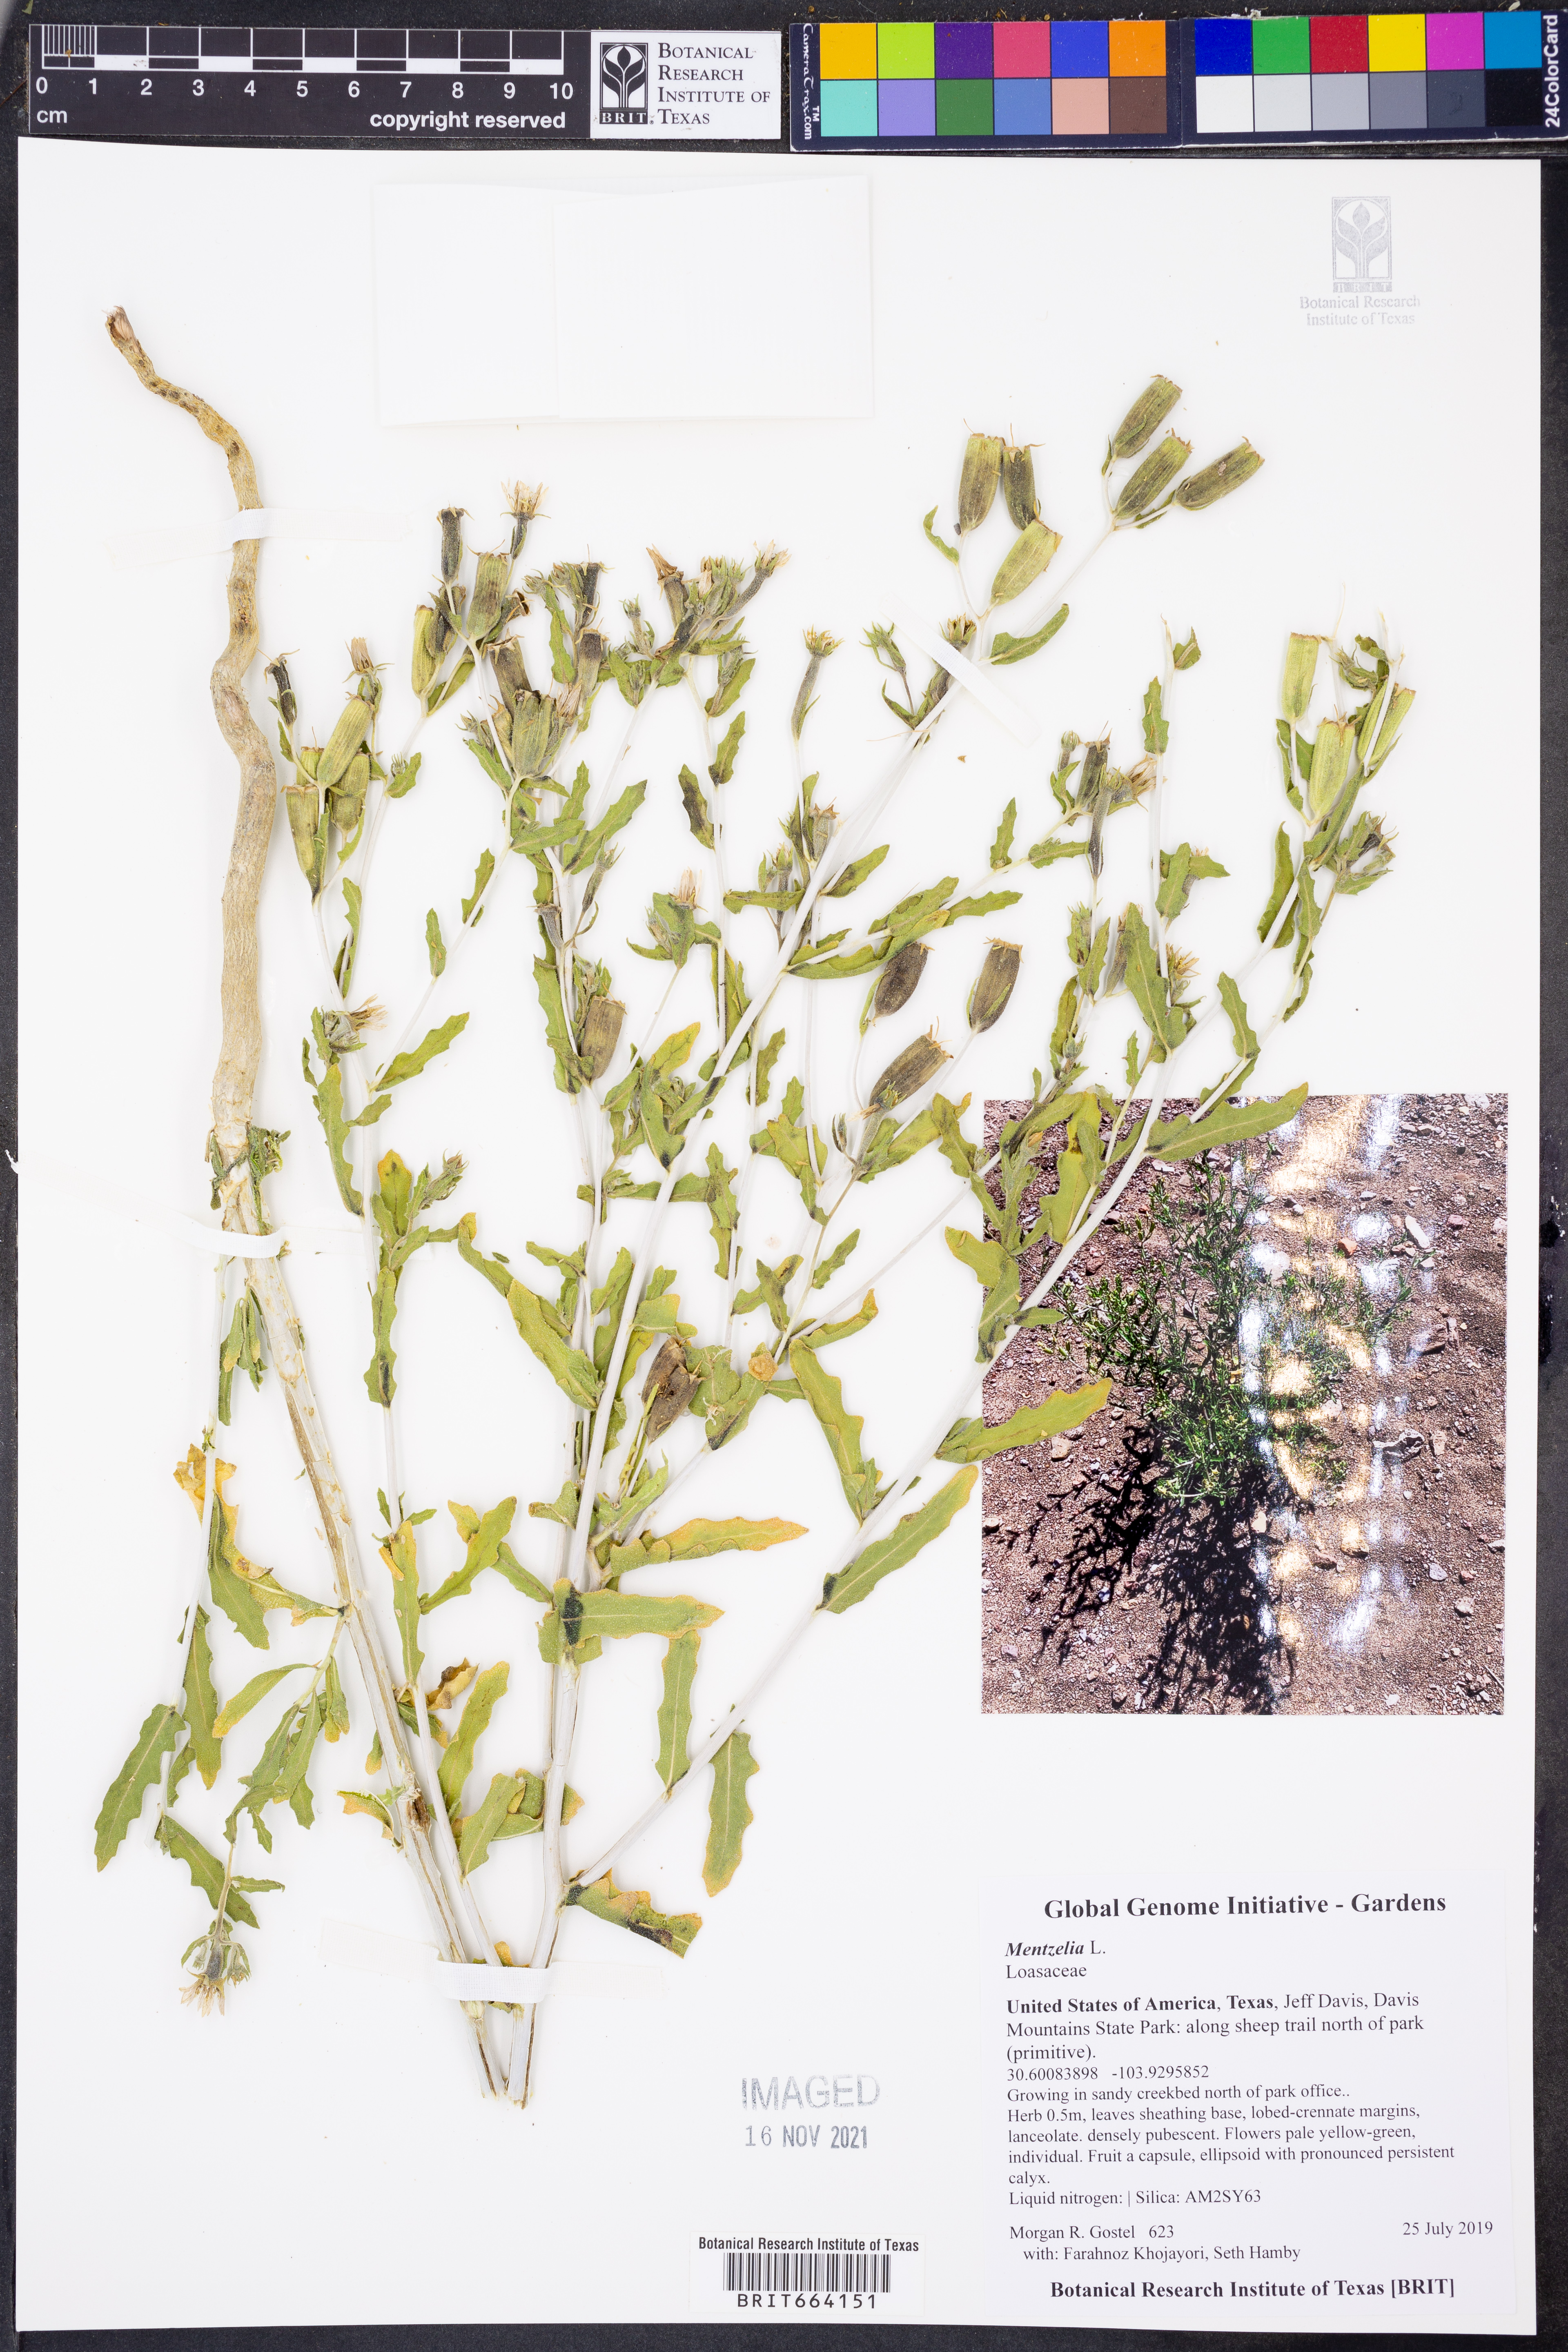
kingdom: Plantae
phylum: Tracheophyta
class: Magnoliopsida
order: Cornales
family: Loasaceae
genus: Mentzelia
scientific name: Mentzelia
